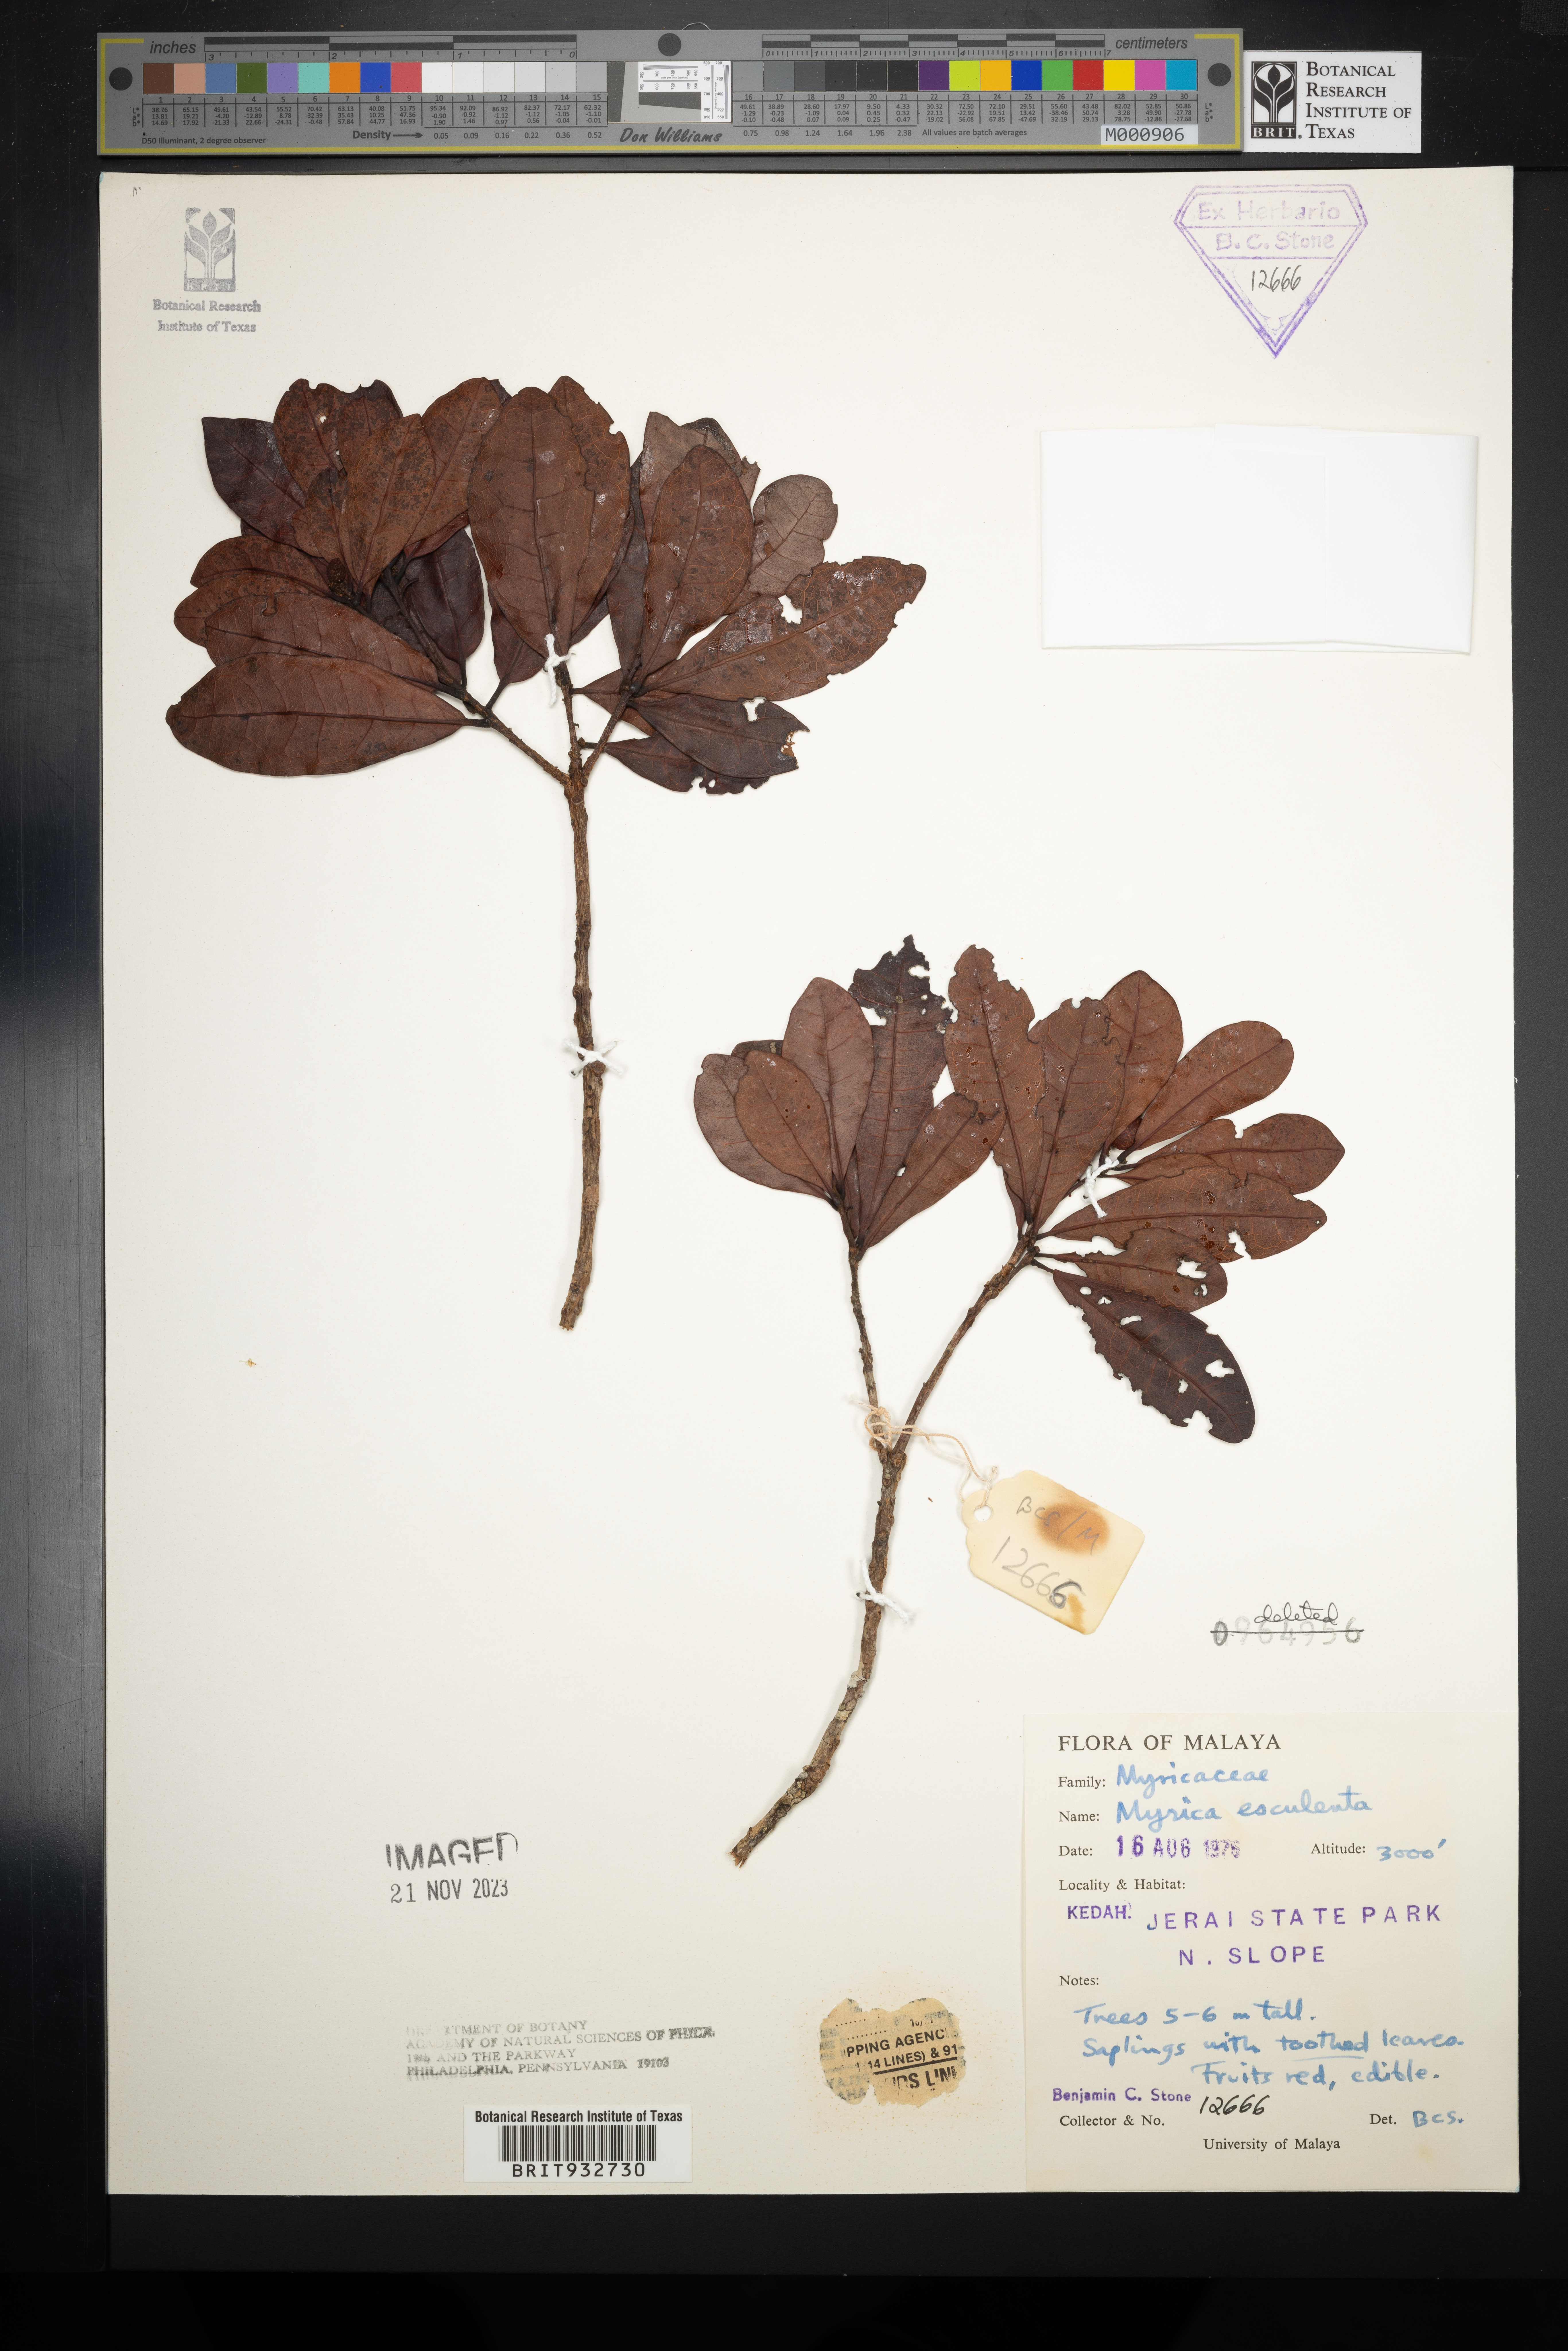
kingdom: Plantae
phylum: Tracheophyta
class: Magnoliopsida
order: Cucurbitales
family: Cucurbitaceae
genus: Momordica
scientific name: Momordica
